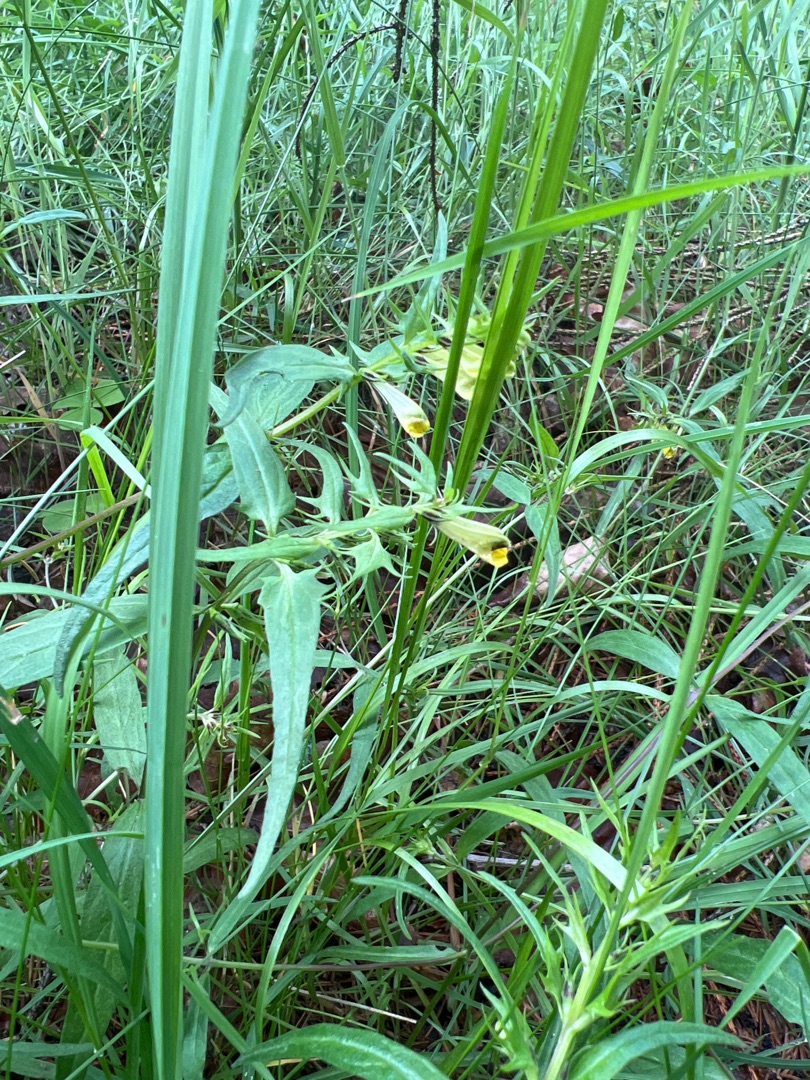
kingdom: Plantae
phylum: Tracheophyta
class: Magnoliopsida
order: Lamiales
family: Orobanchaceae
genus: Melampyrum
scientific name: Melampyrum pratense
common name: Almindelig kohvede
